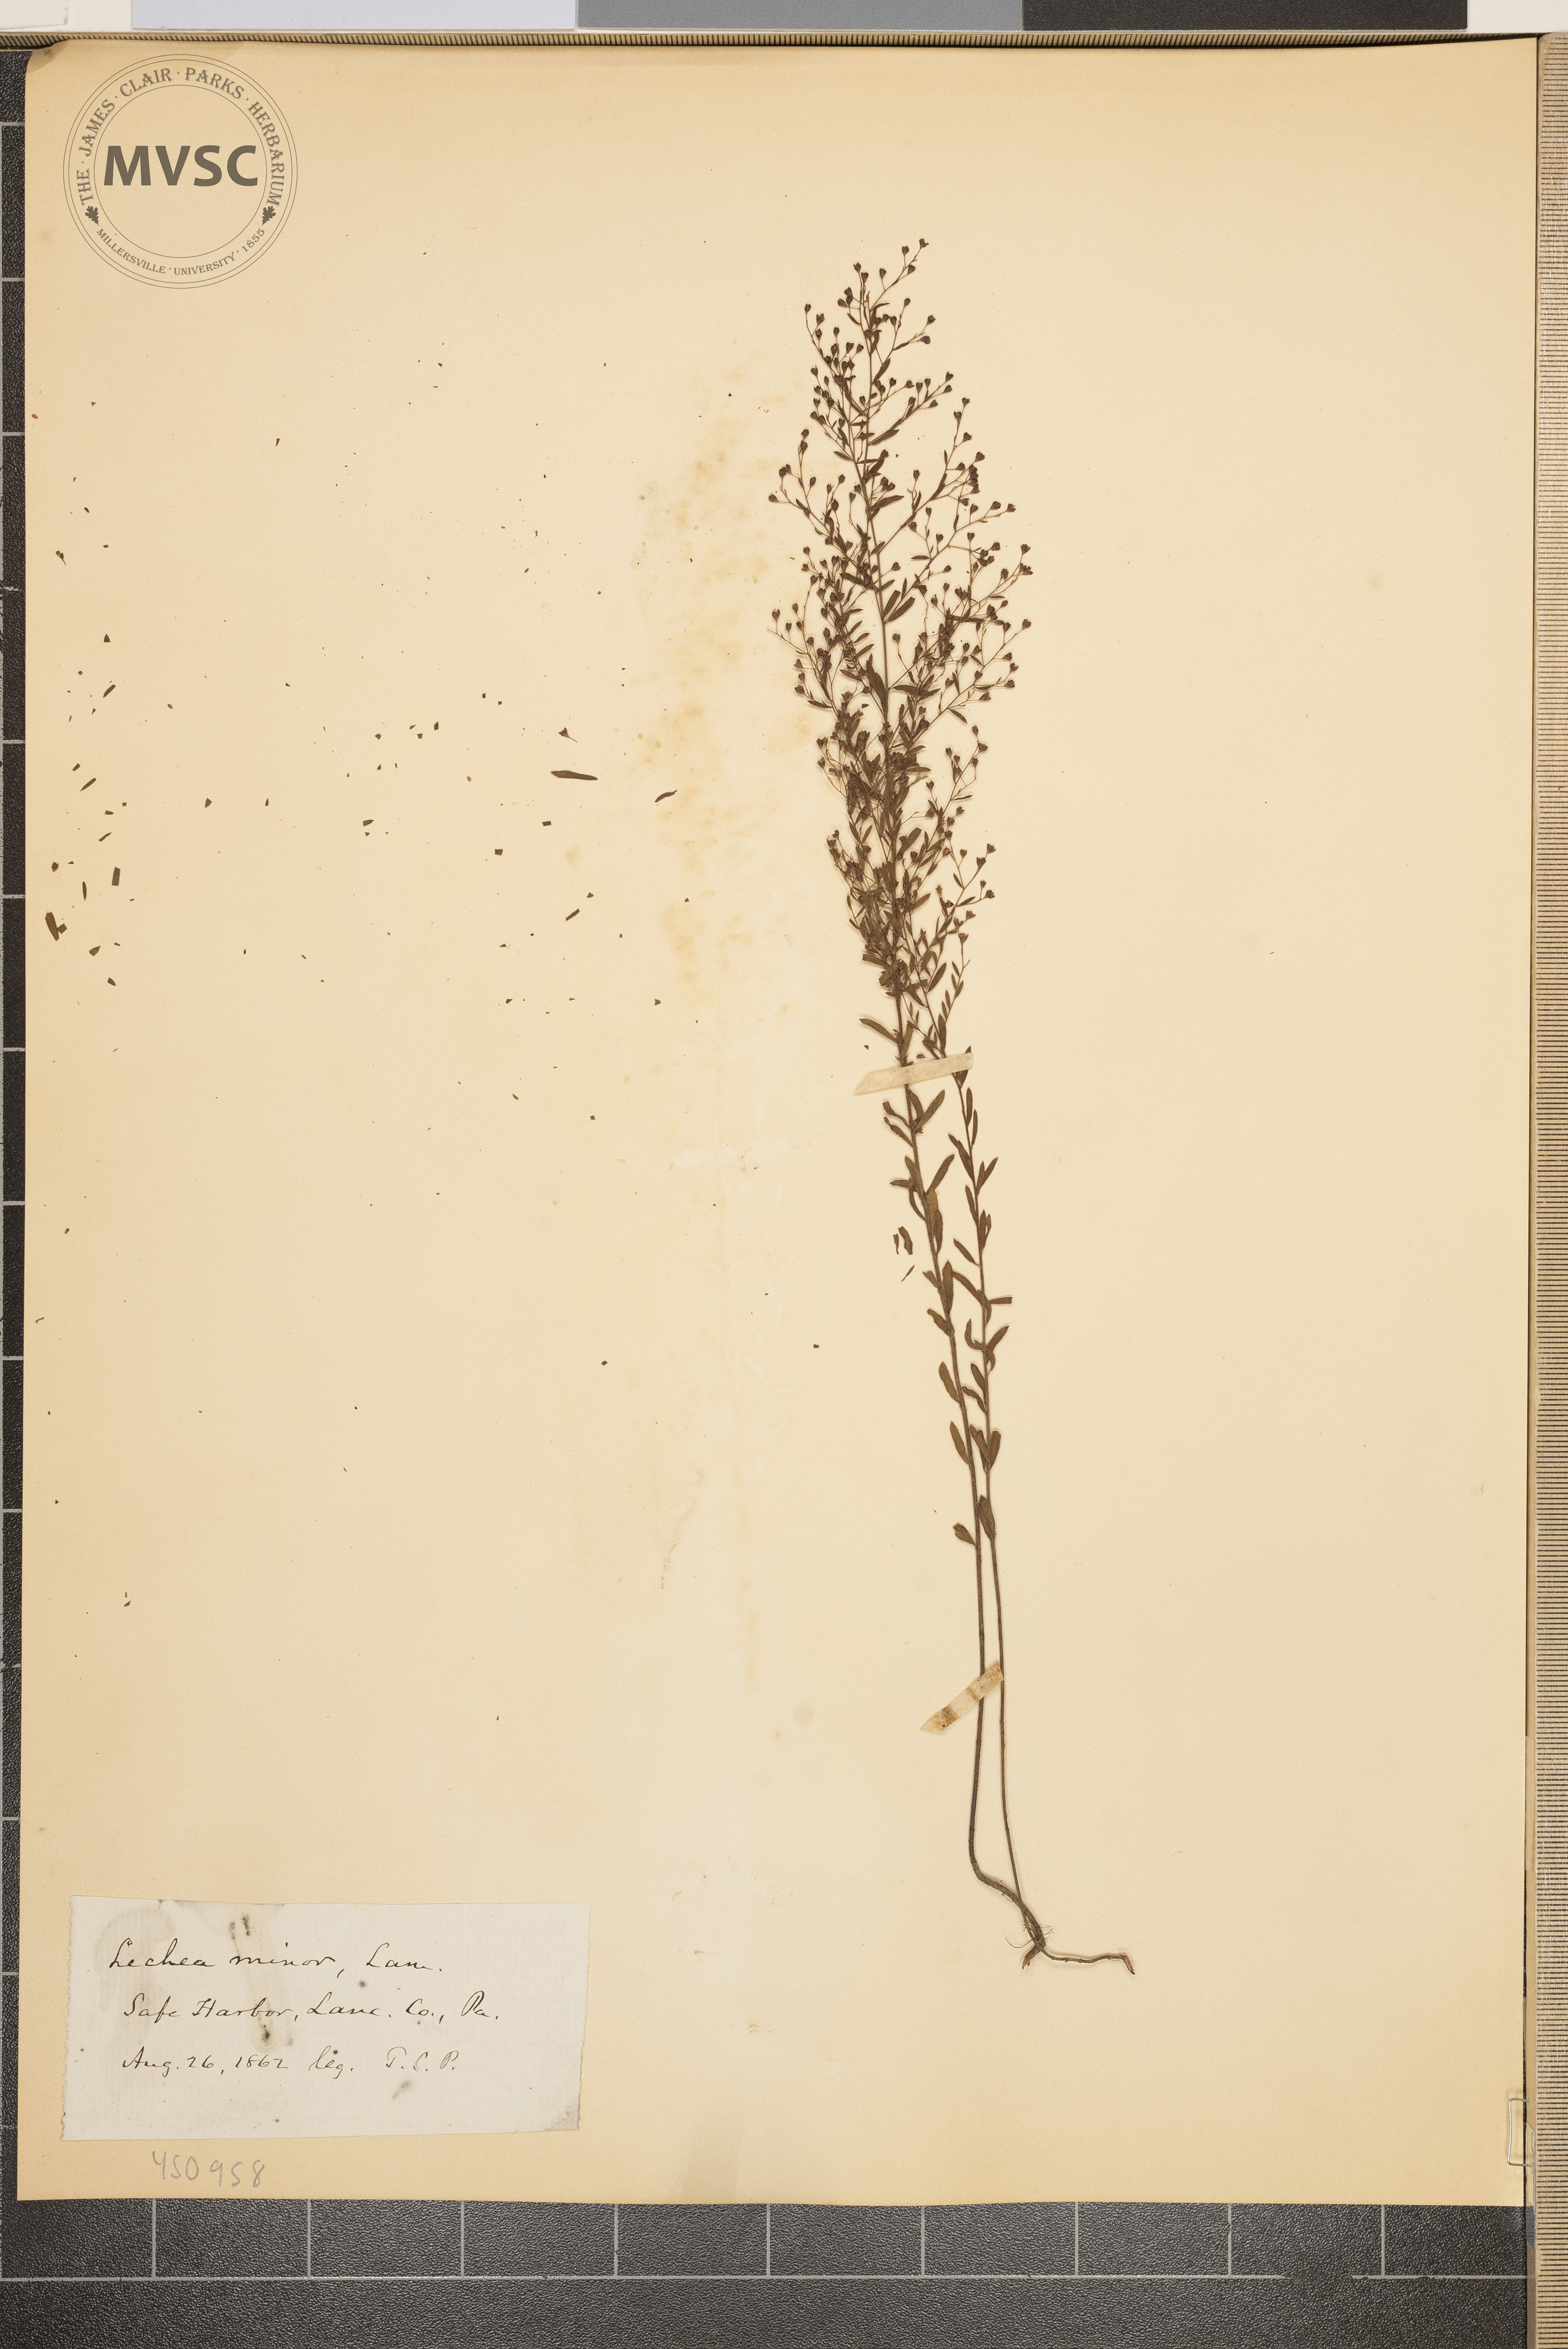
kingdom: Plantae
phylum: Tracheophyta
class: Magnoliopsida
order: Malvales
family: Cistaceae
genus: Lechea
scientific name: Lechea minor
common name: Thyme-leaf pinweed
